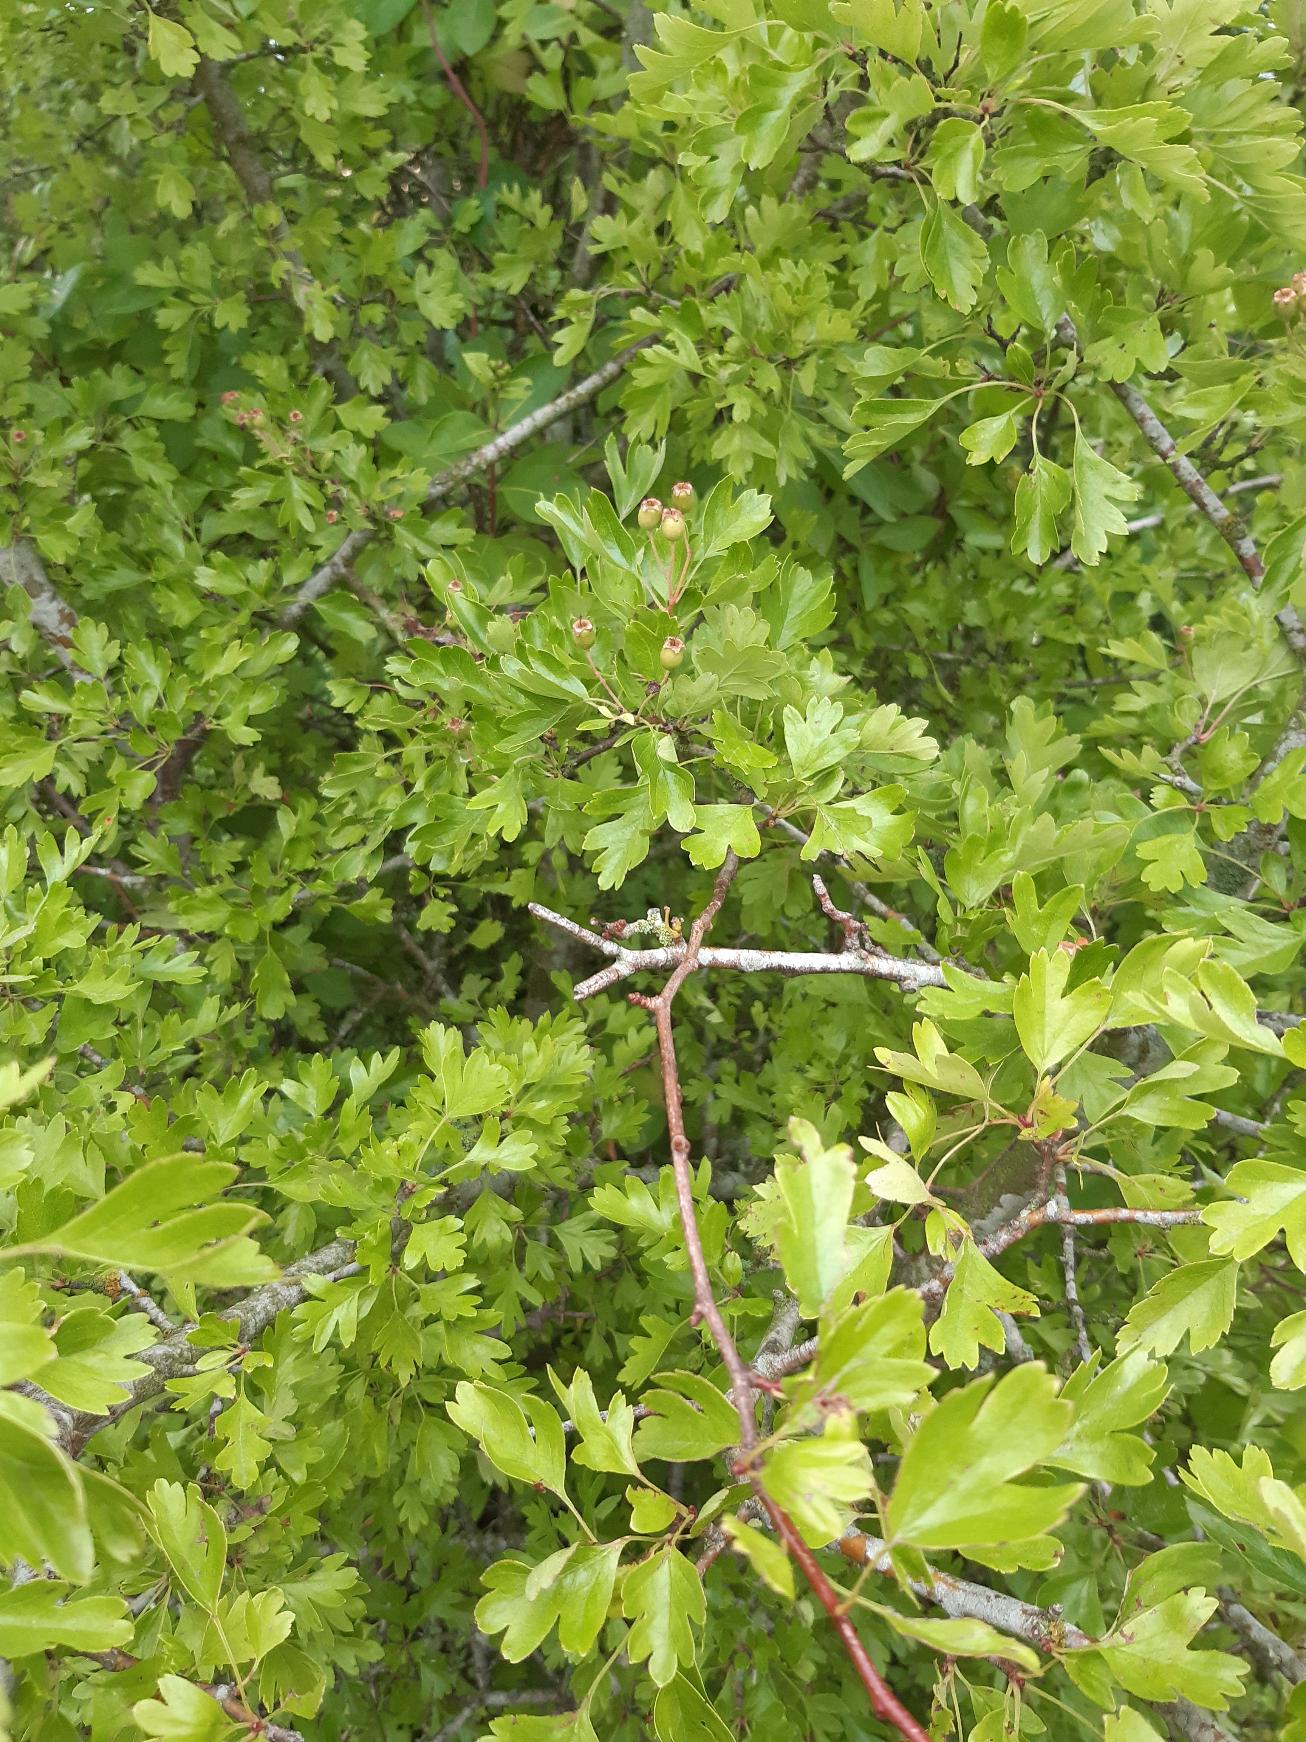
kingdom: Plantae
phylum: Tracheophyta
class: Magnoliopsida
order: Rosales
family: Rosaceae
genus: Crataegus
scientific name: Crataegus monogyna
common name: Engriflet hvidtjørn
